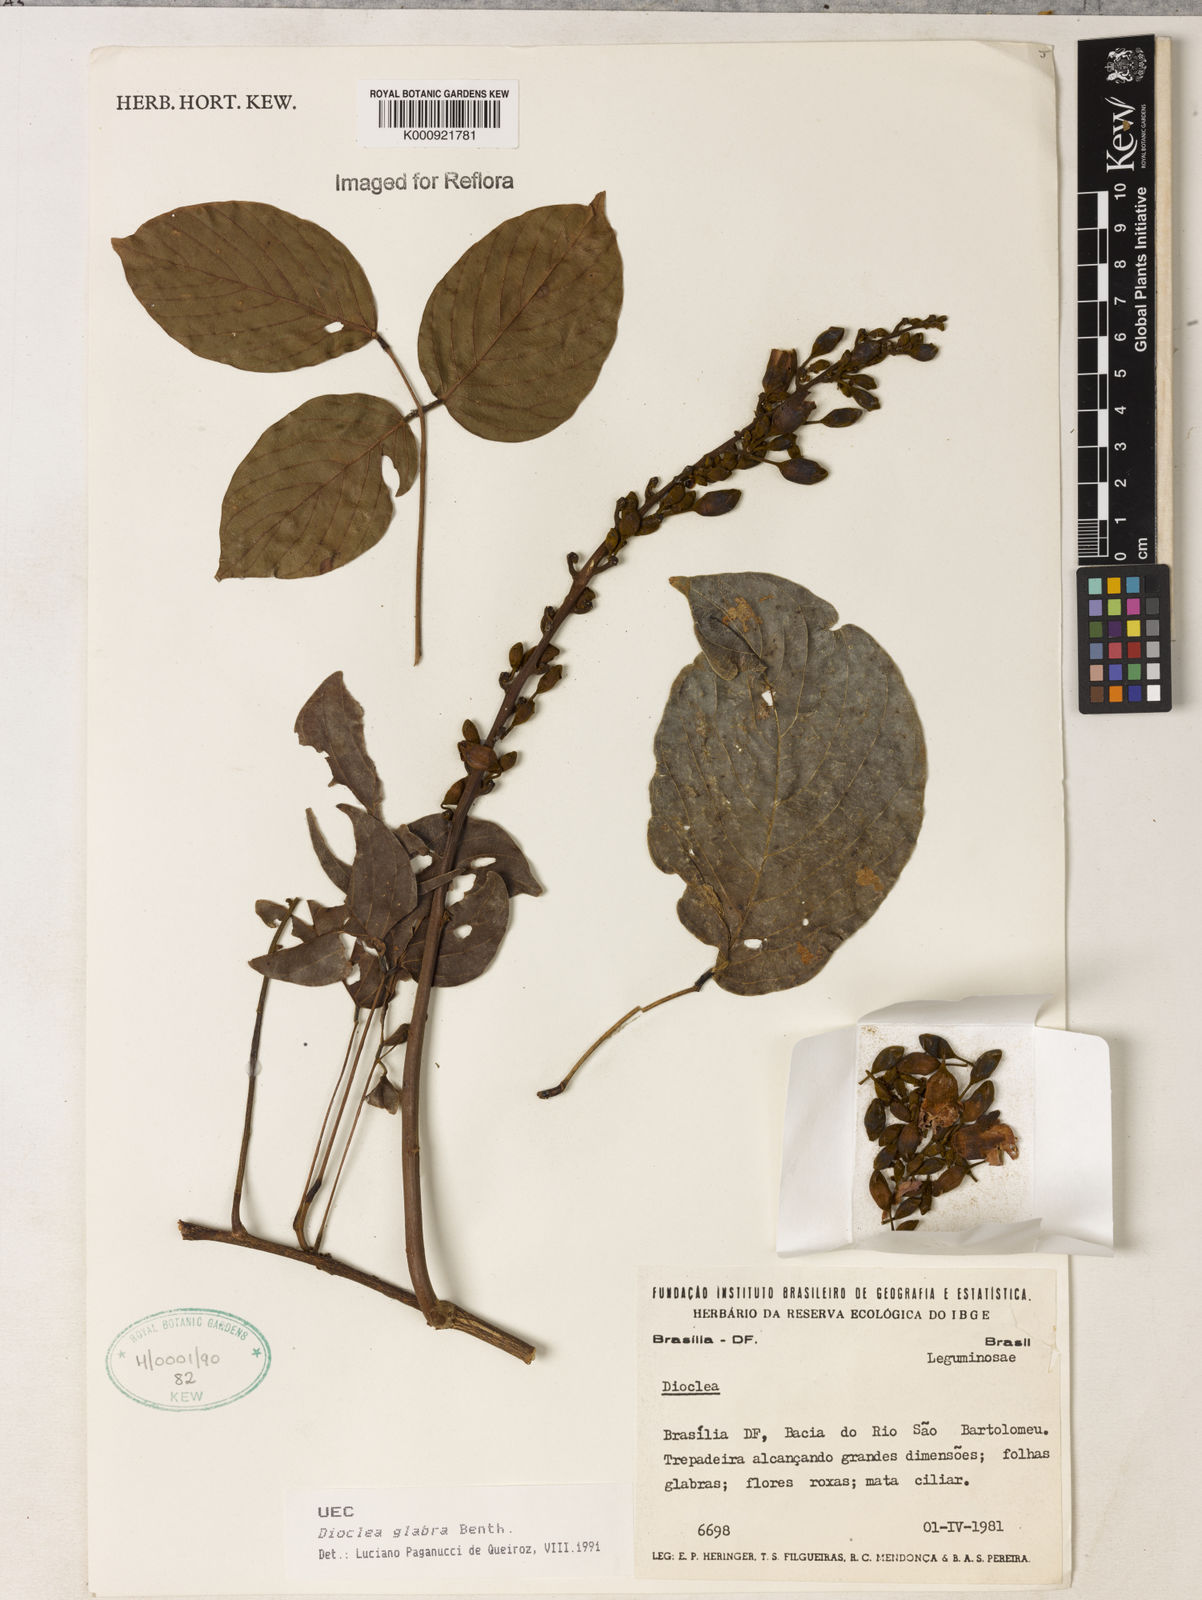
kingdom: Plantae
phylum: Tracheophyta
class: Magnoliopsida
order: Fabales
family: Fabaceae
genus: Macropsychanthus
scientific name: Macropsychanthus glaber
